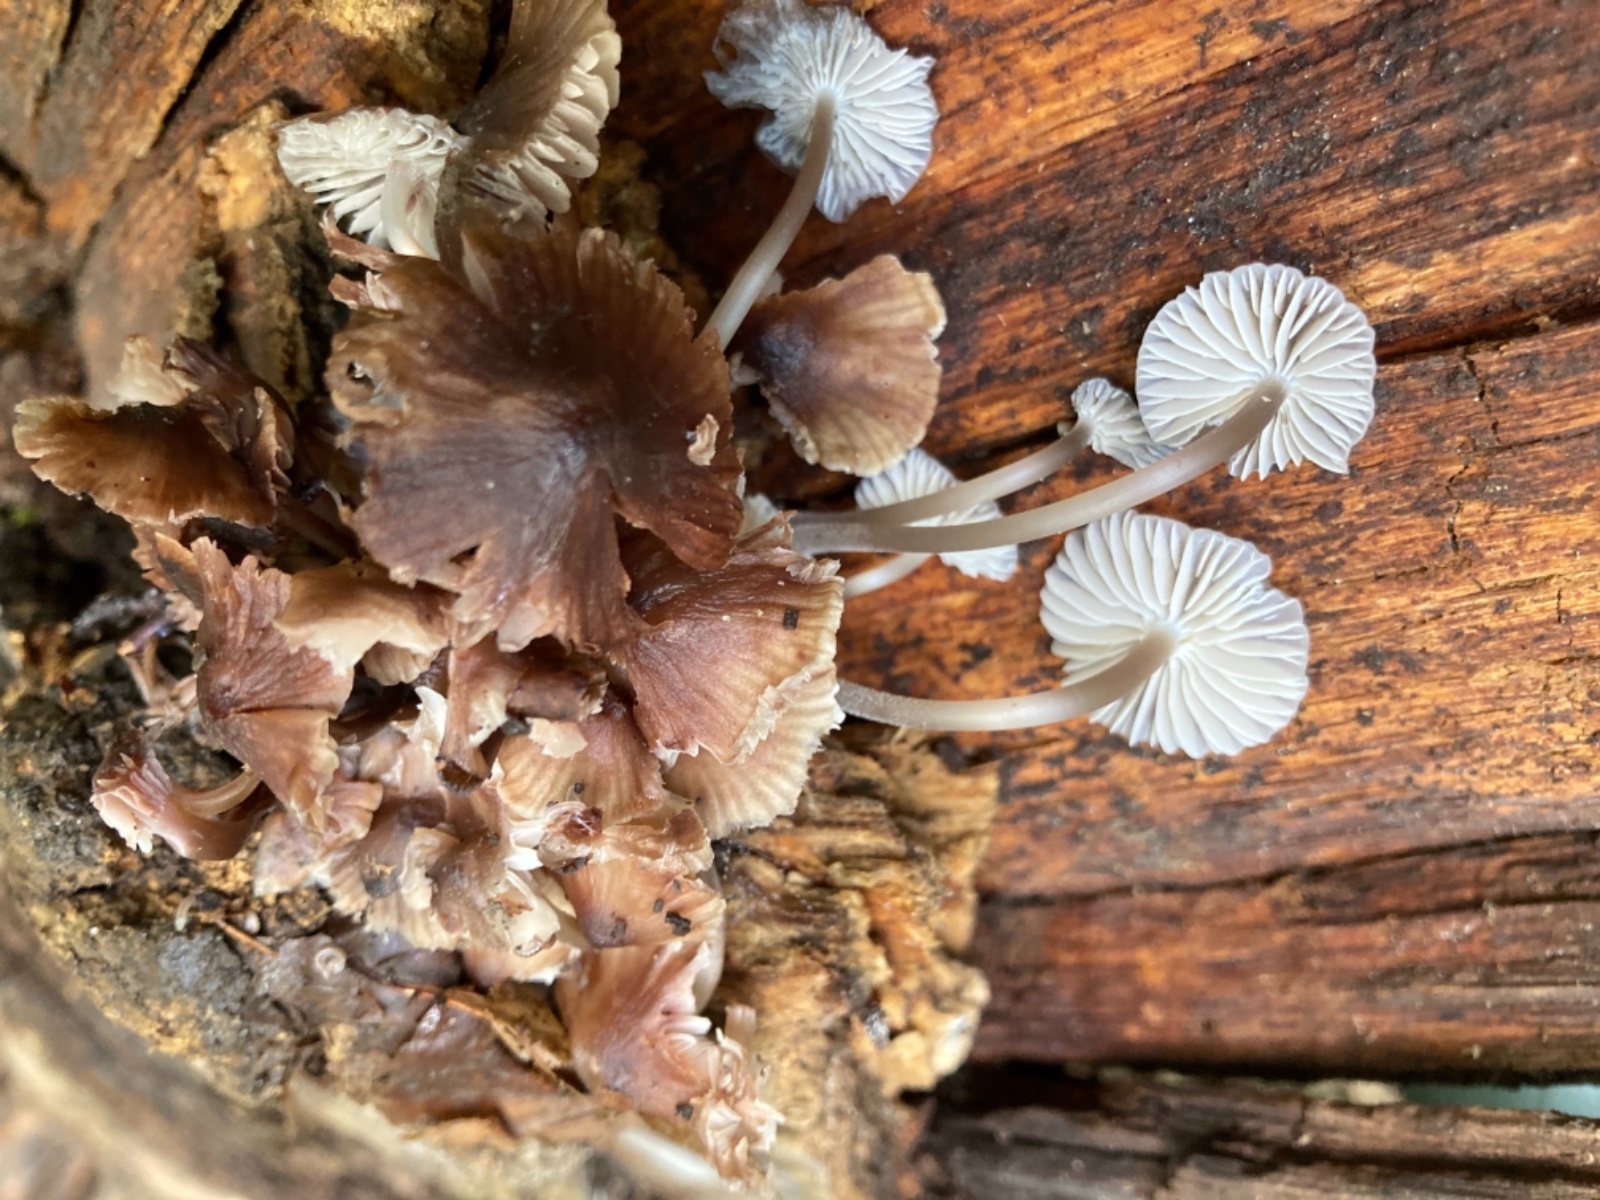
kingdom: Fungi
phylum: Basidiomycota
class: Agaricomycetes
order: Agaricales
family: Mycenaceae
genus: Mycena
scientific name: Mycena maculata
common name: rødplettet huesvamp
